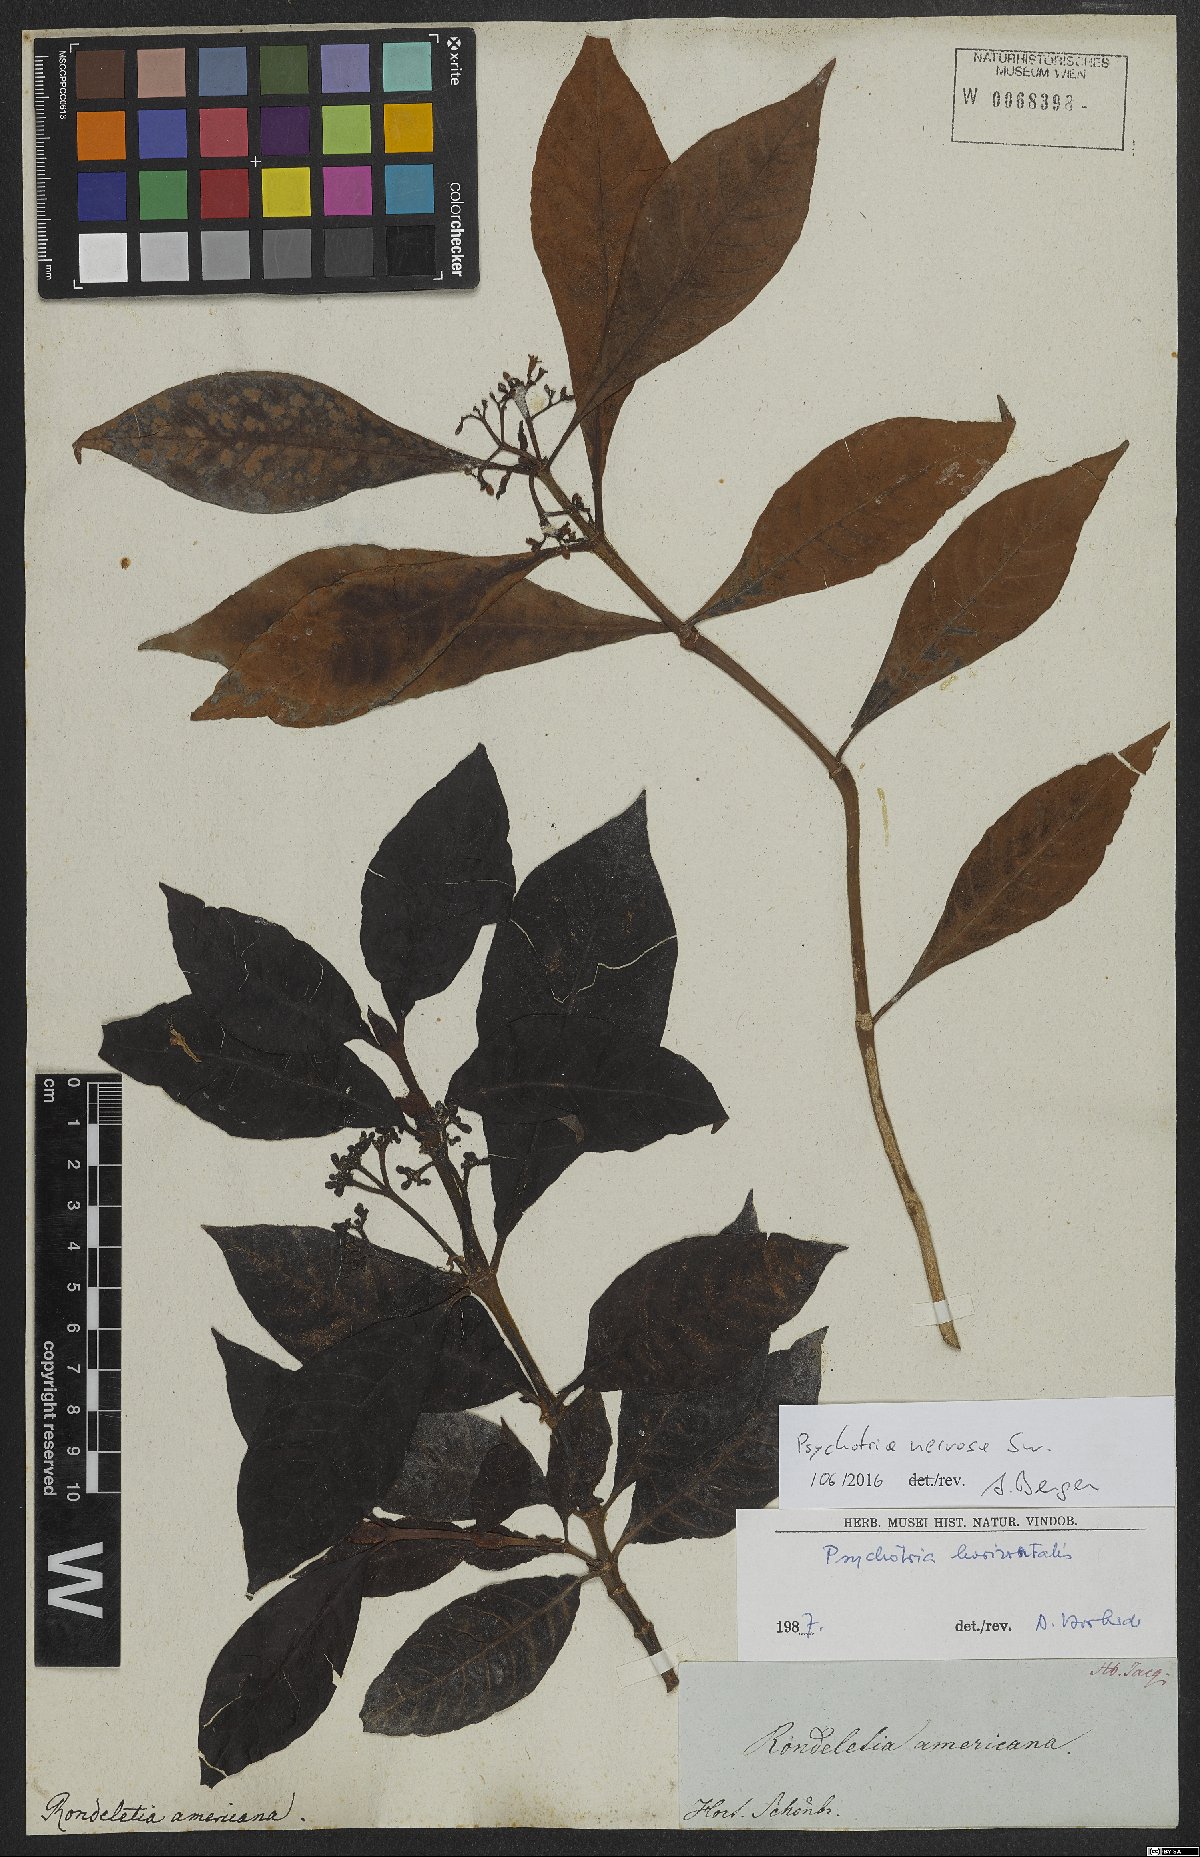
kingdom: Plantae
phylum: Tracheophyta
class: Magnoliopsida
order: Gentianales
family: Rubiaceae
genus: Psychotria
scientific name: Psychotria nervosa
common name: Bastard cankerberry
